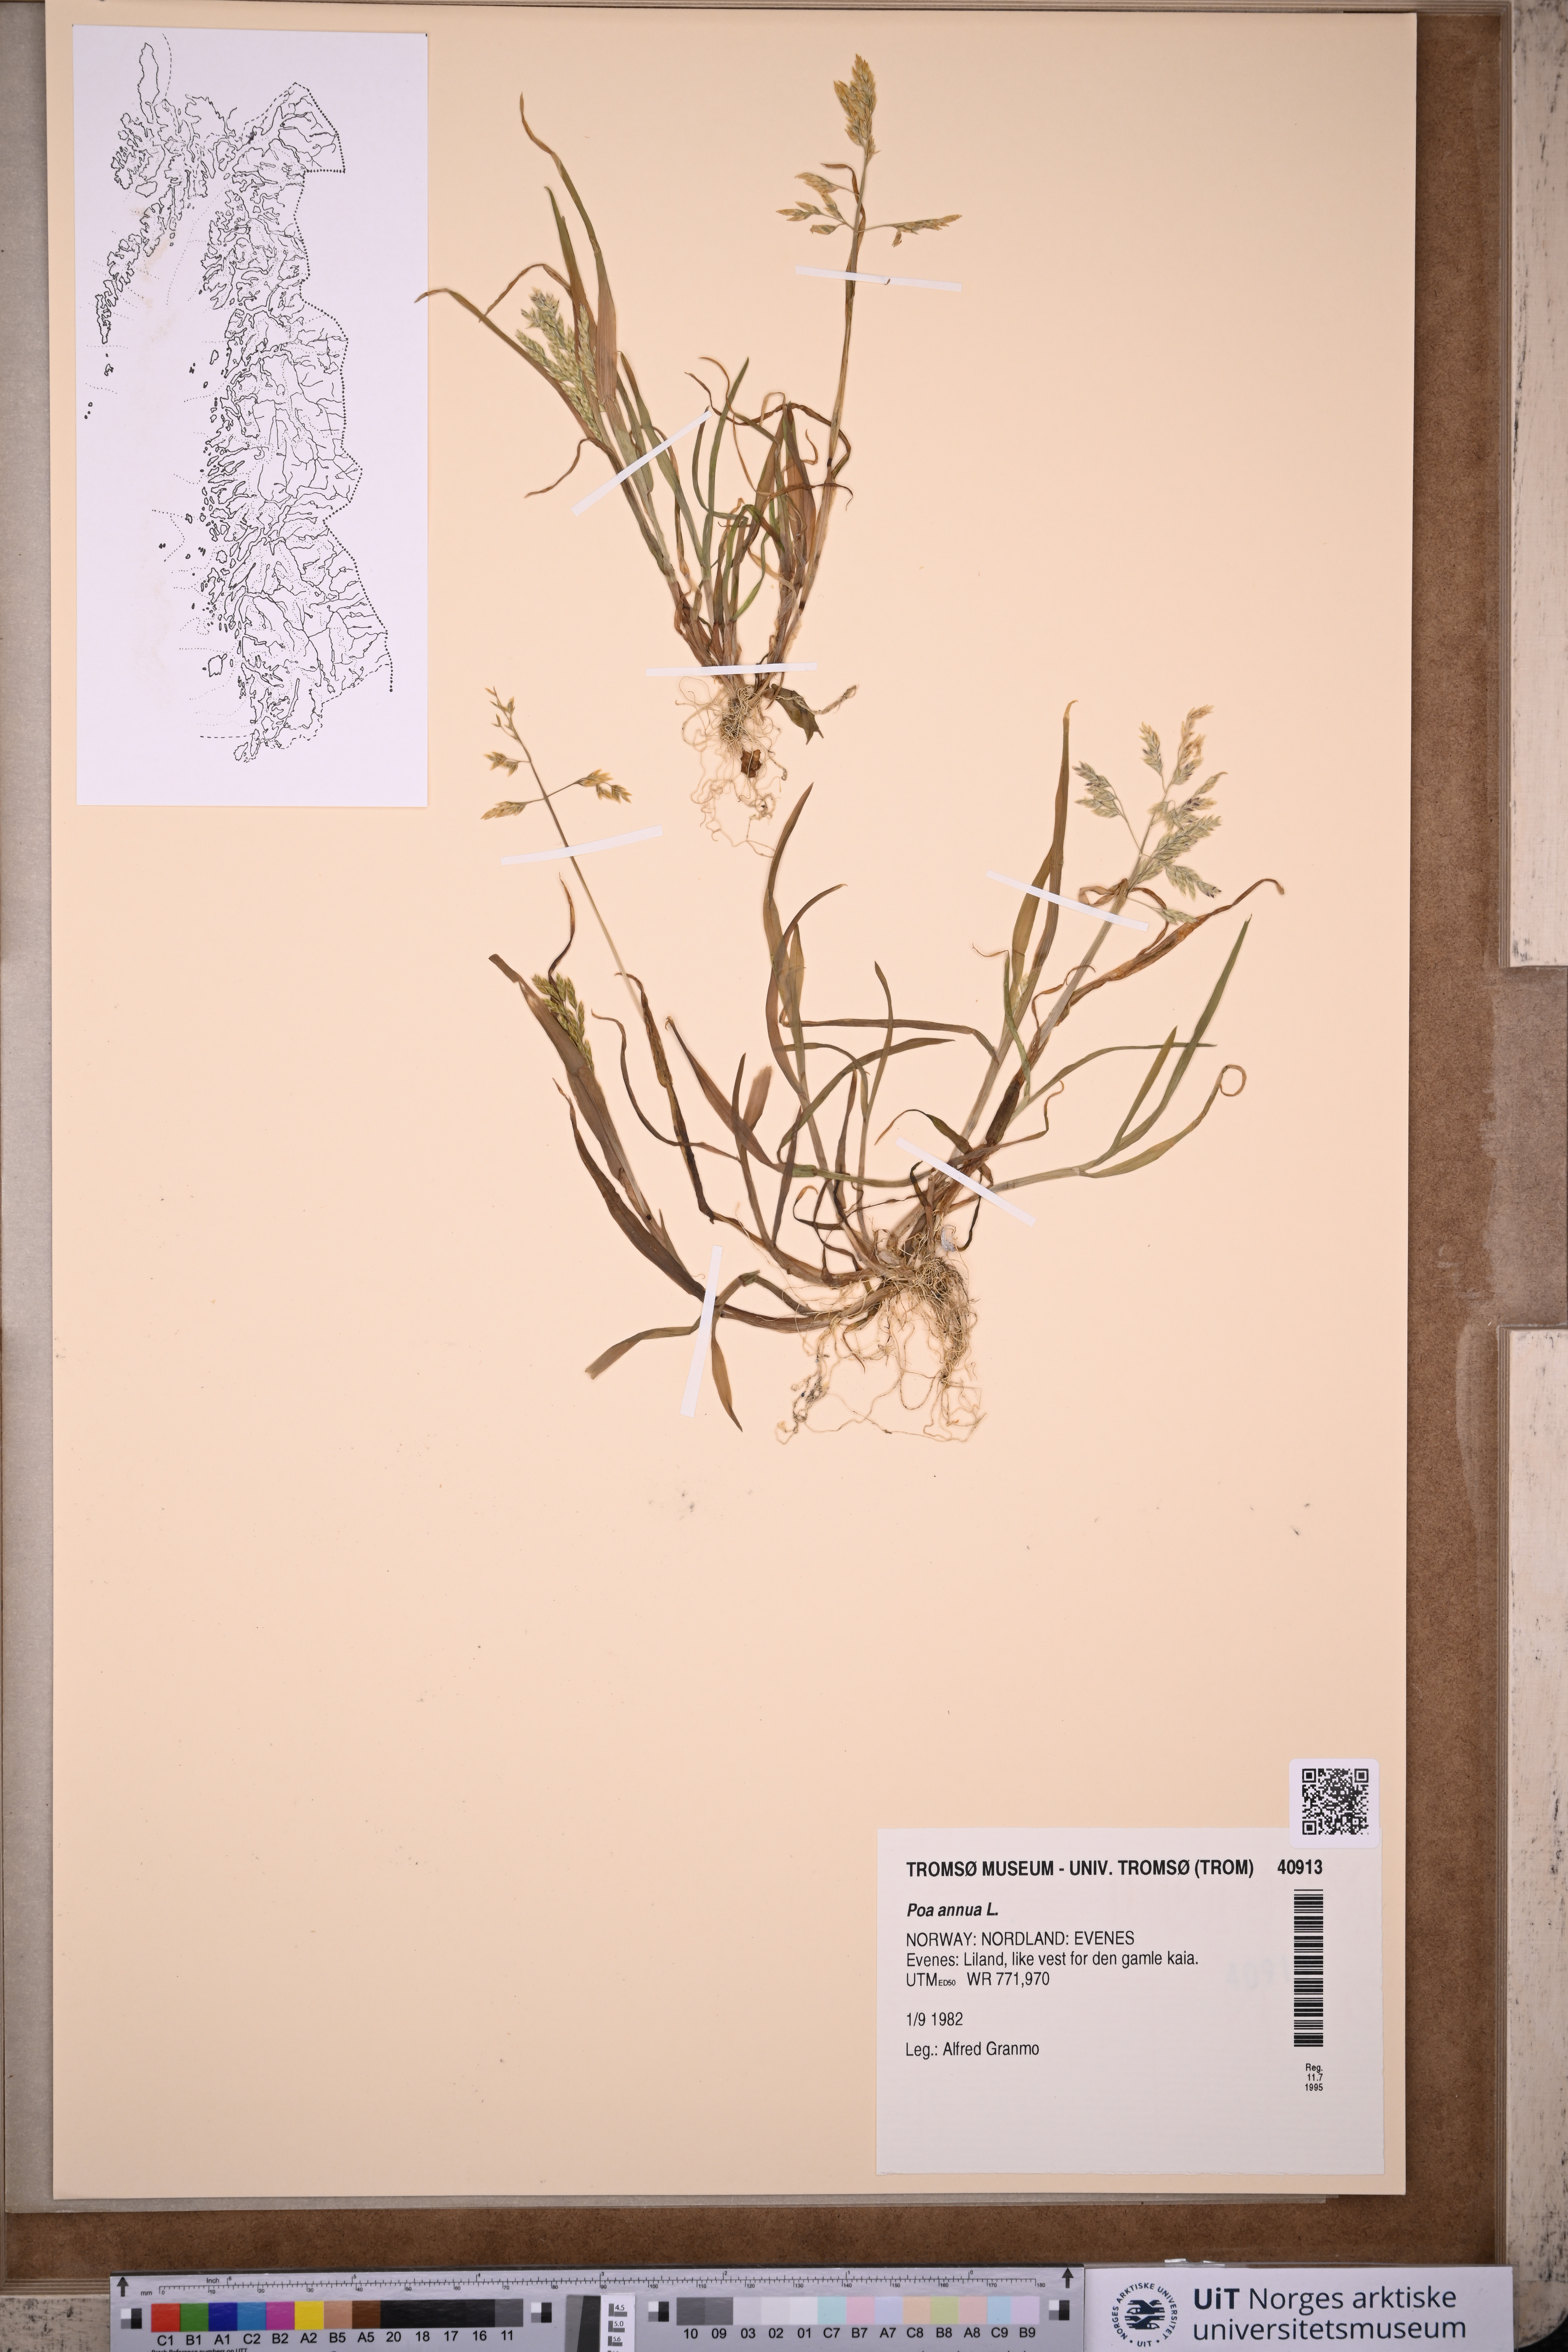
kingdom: Plantae
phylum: Tracheophyta
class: Liliopsida
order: Poales
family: Poaceae
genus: Poa
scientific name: Poa annua
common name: Annual bluegrass
